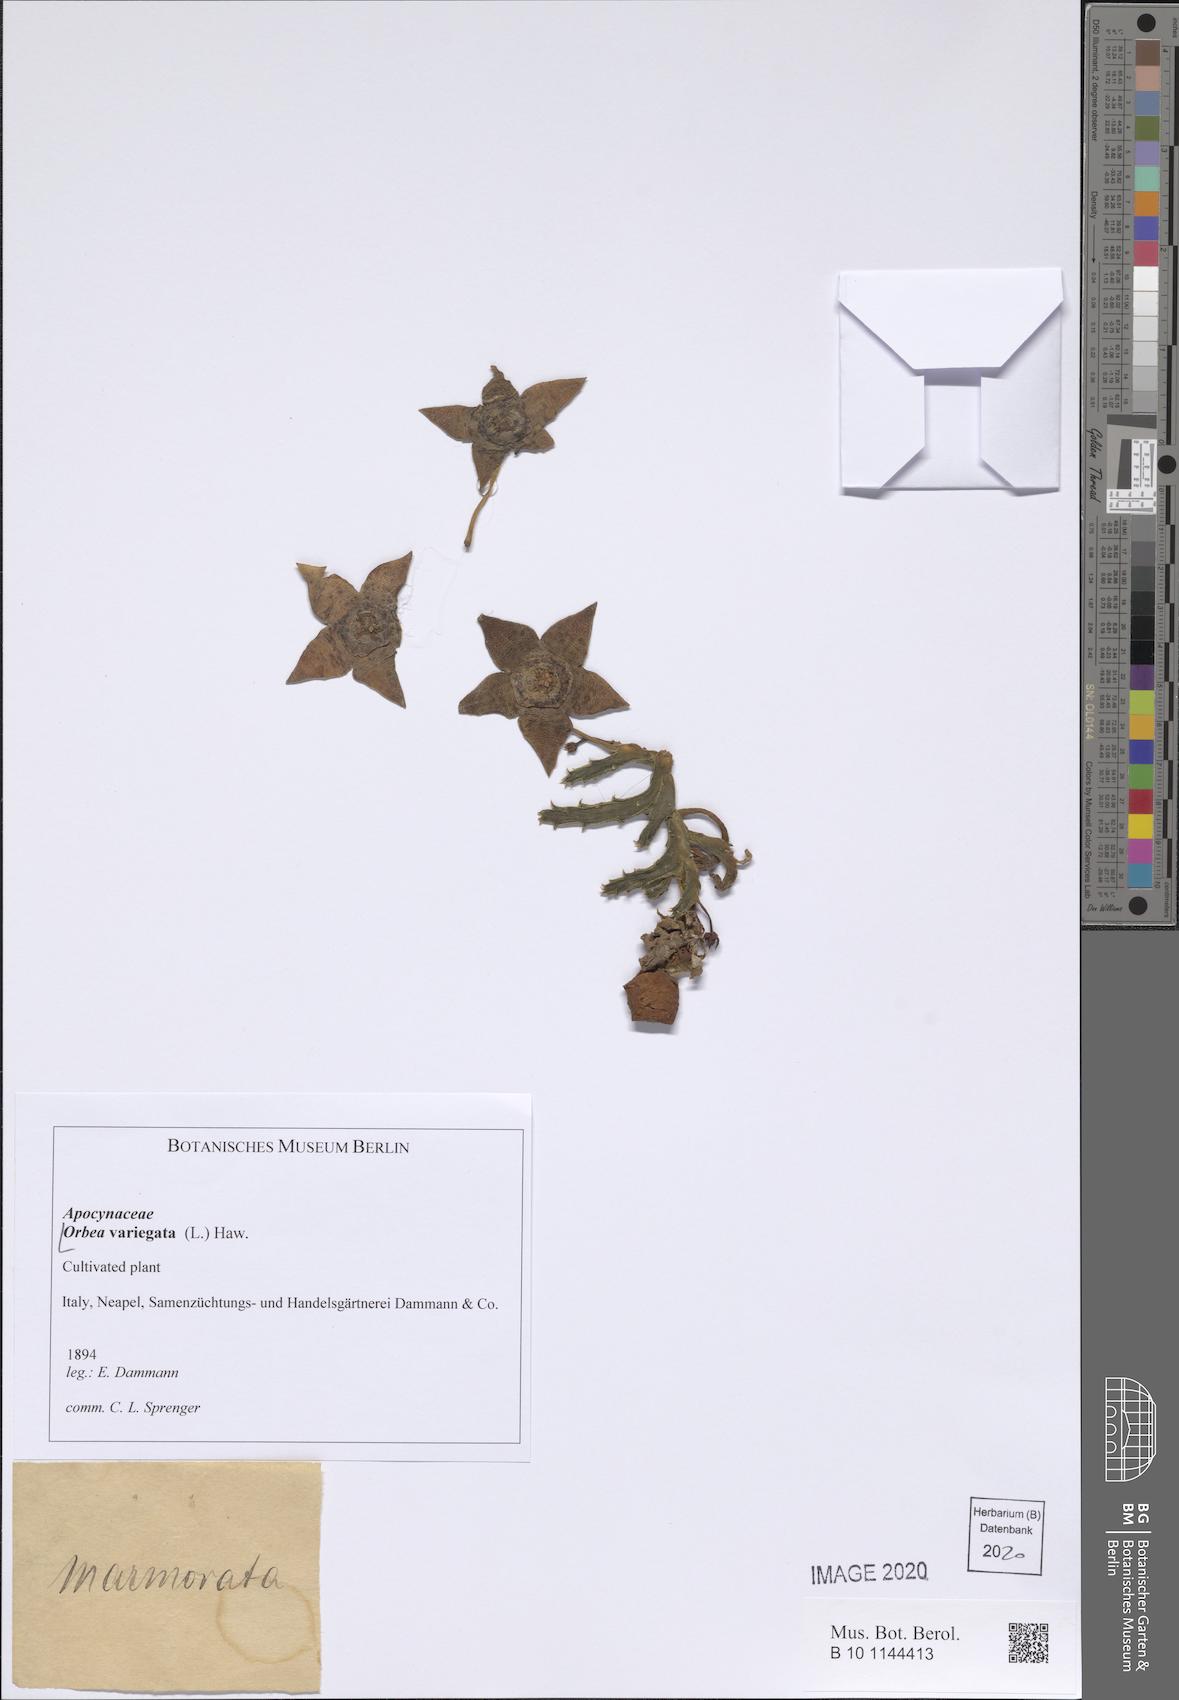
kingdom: Plantae
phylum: Tracheophyta
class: Magnoliopsida
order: Gentianales
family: Apocynaceae
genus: Ceropegia
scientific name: Ceropegia mixta
